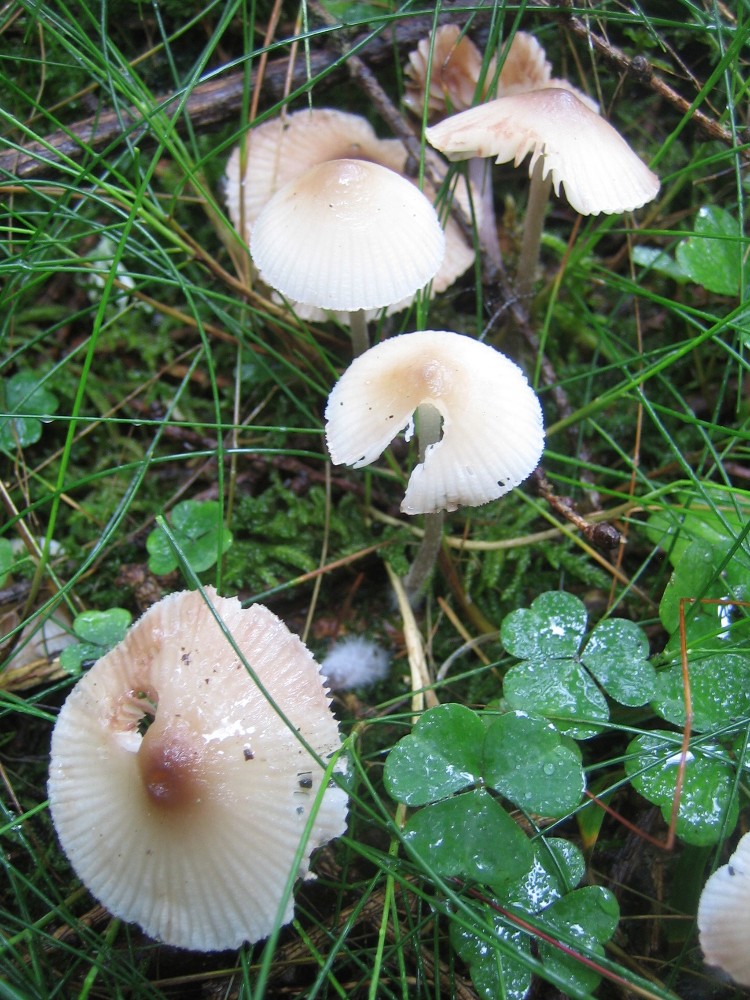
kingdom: Fungi
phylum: Basidiomycota
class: Agaricomycetes
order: Agaricales
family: Mycenaceae
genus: Mycena
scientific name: Mycena zephirus
